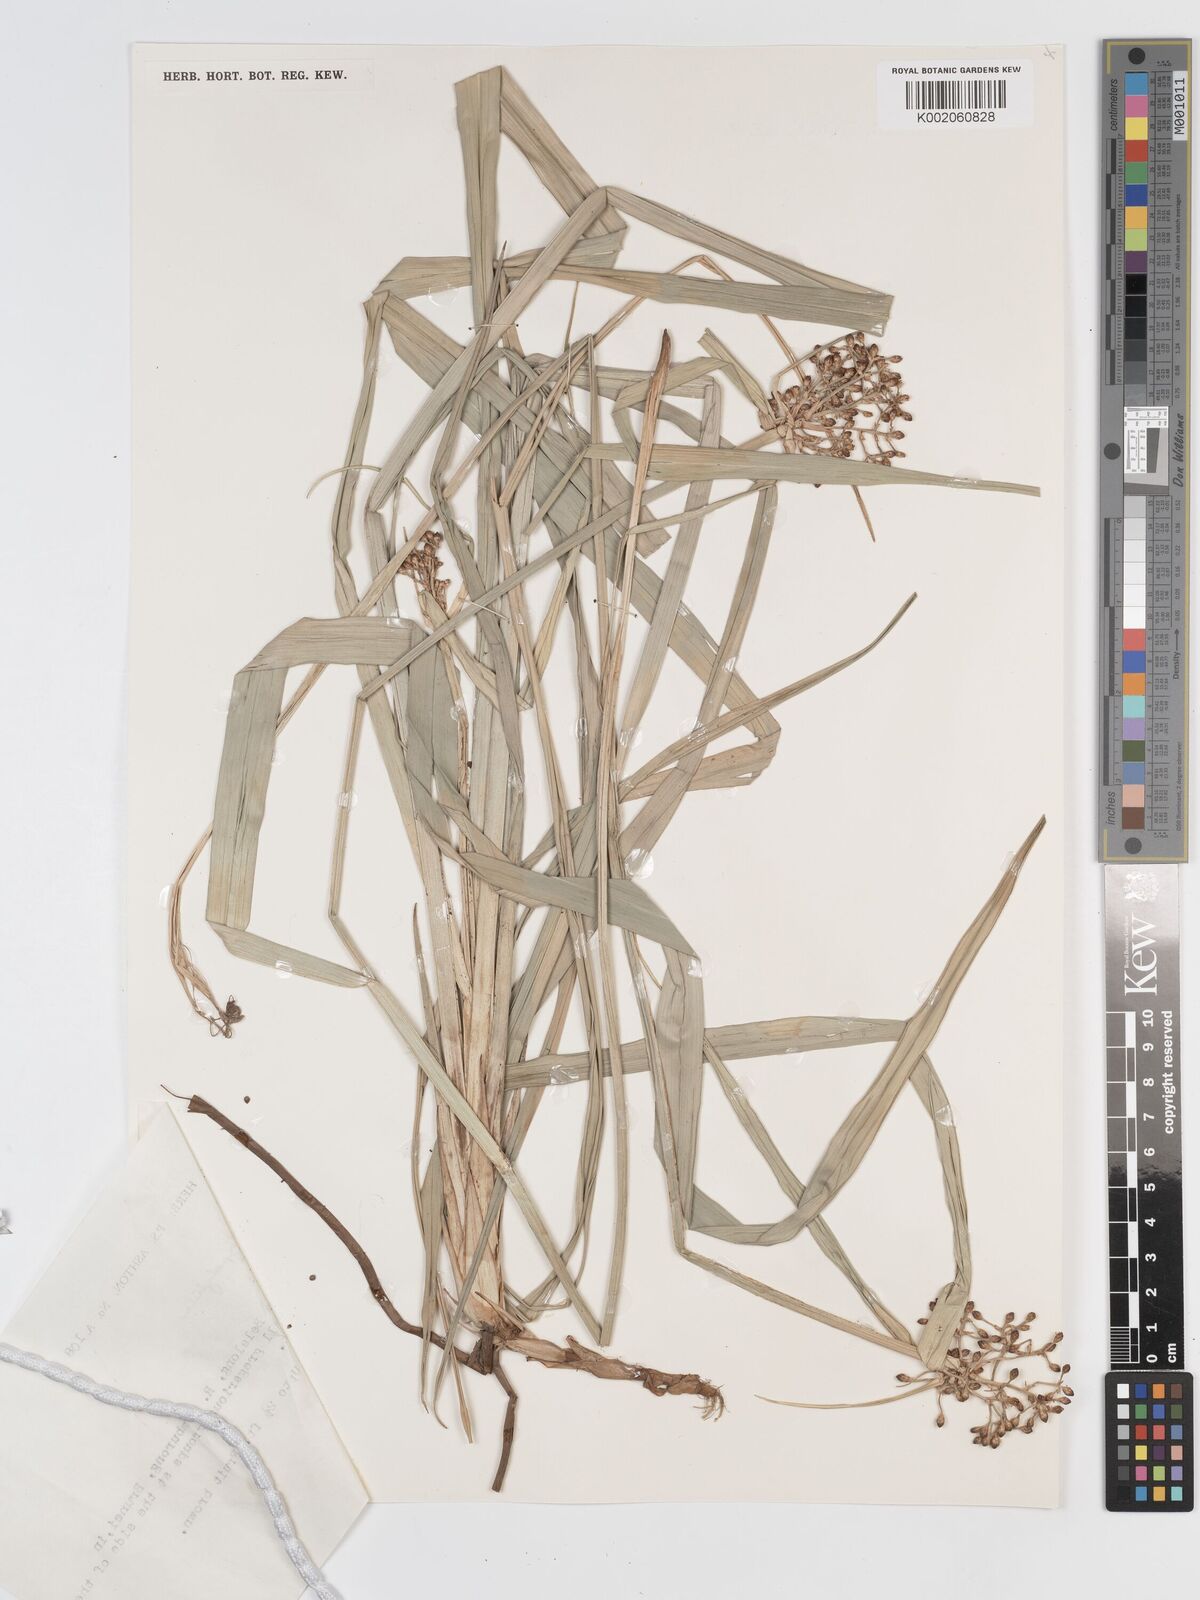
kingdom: Plantae
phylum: Tracheophyta
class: Liliopsida
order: Poales
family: Cyperaceae
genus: Hypolytrum
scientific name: Hypolytrum
